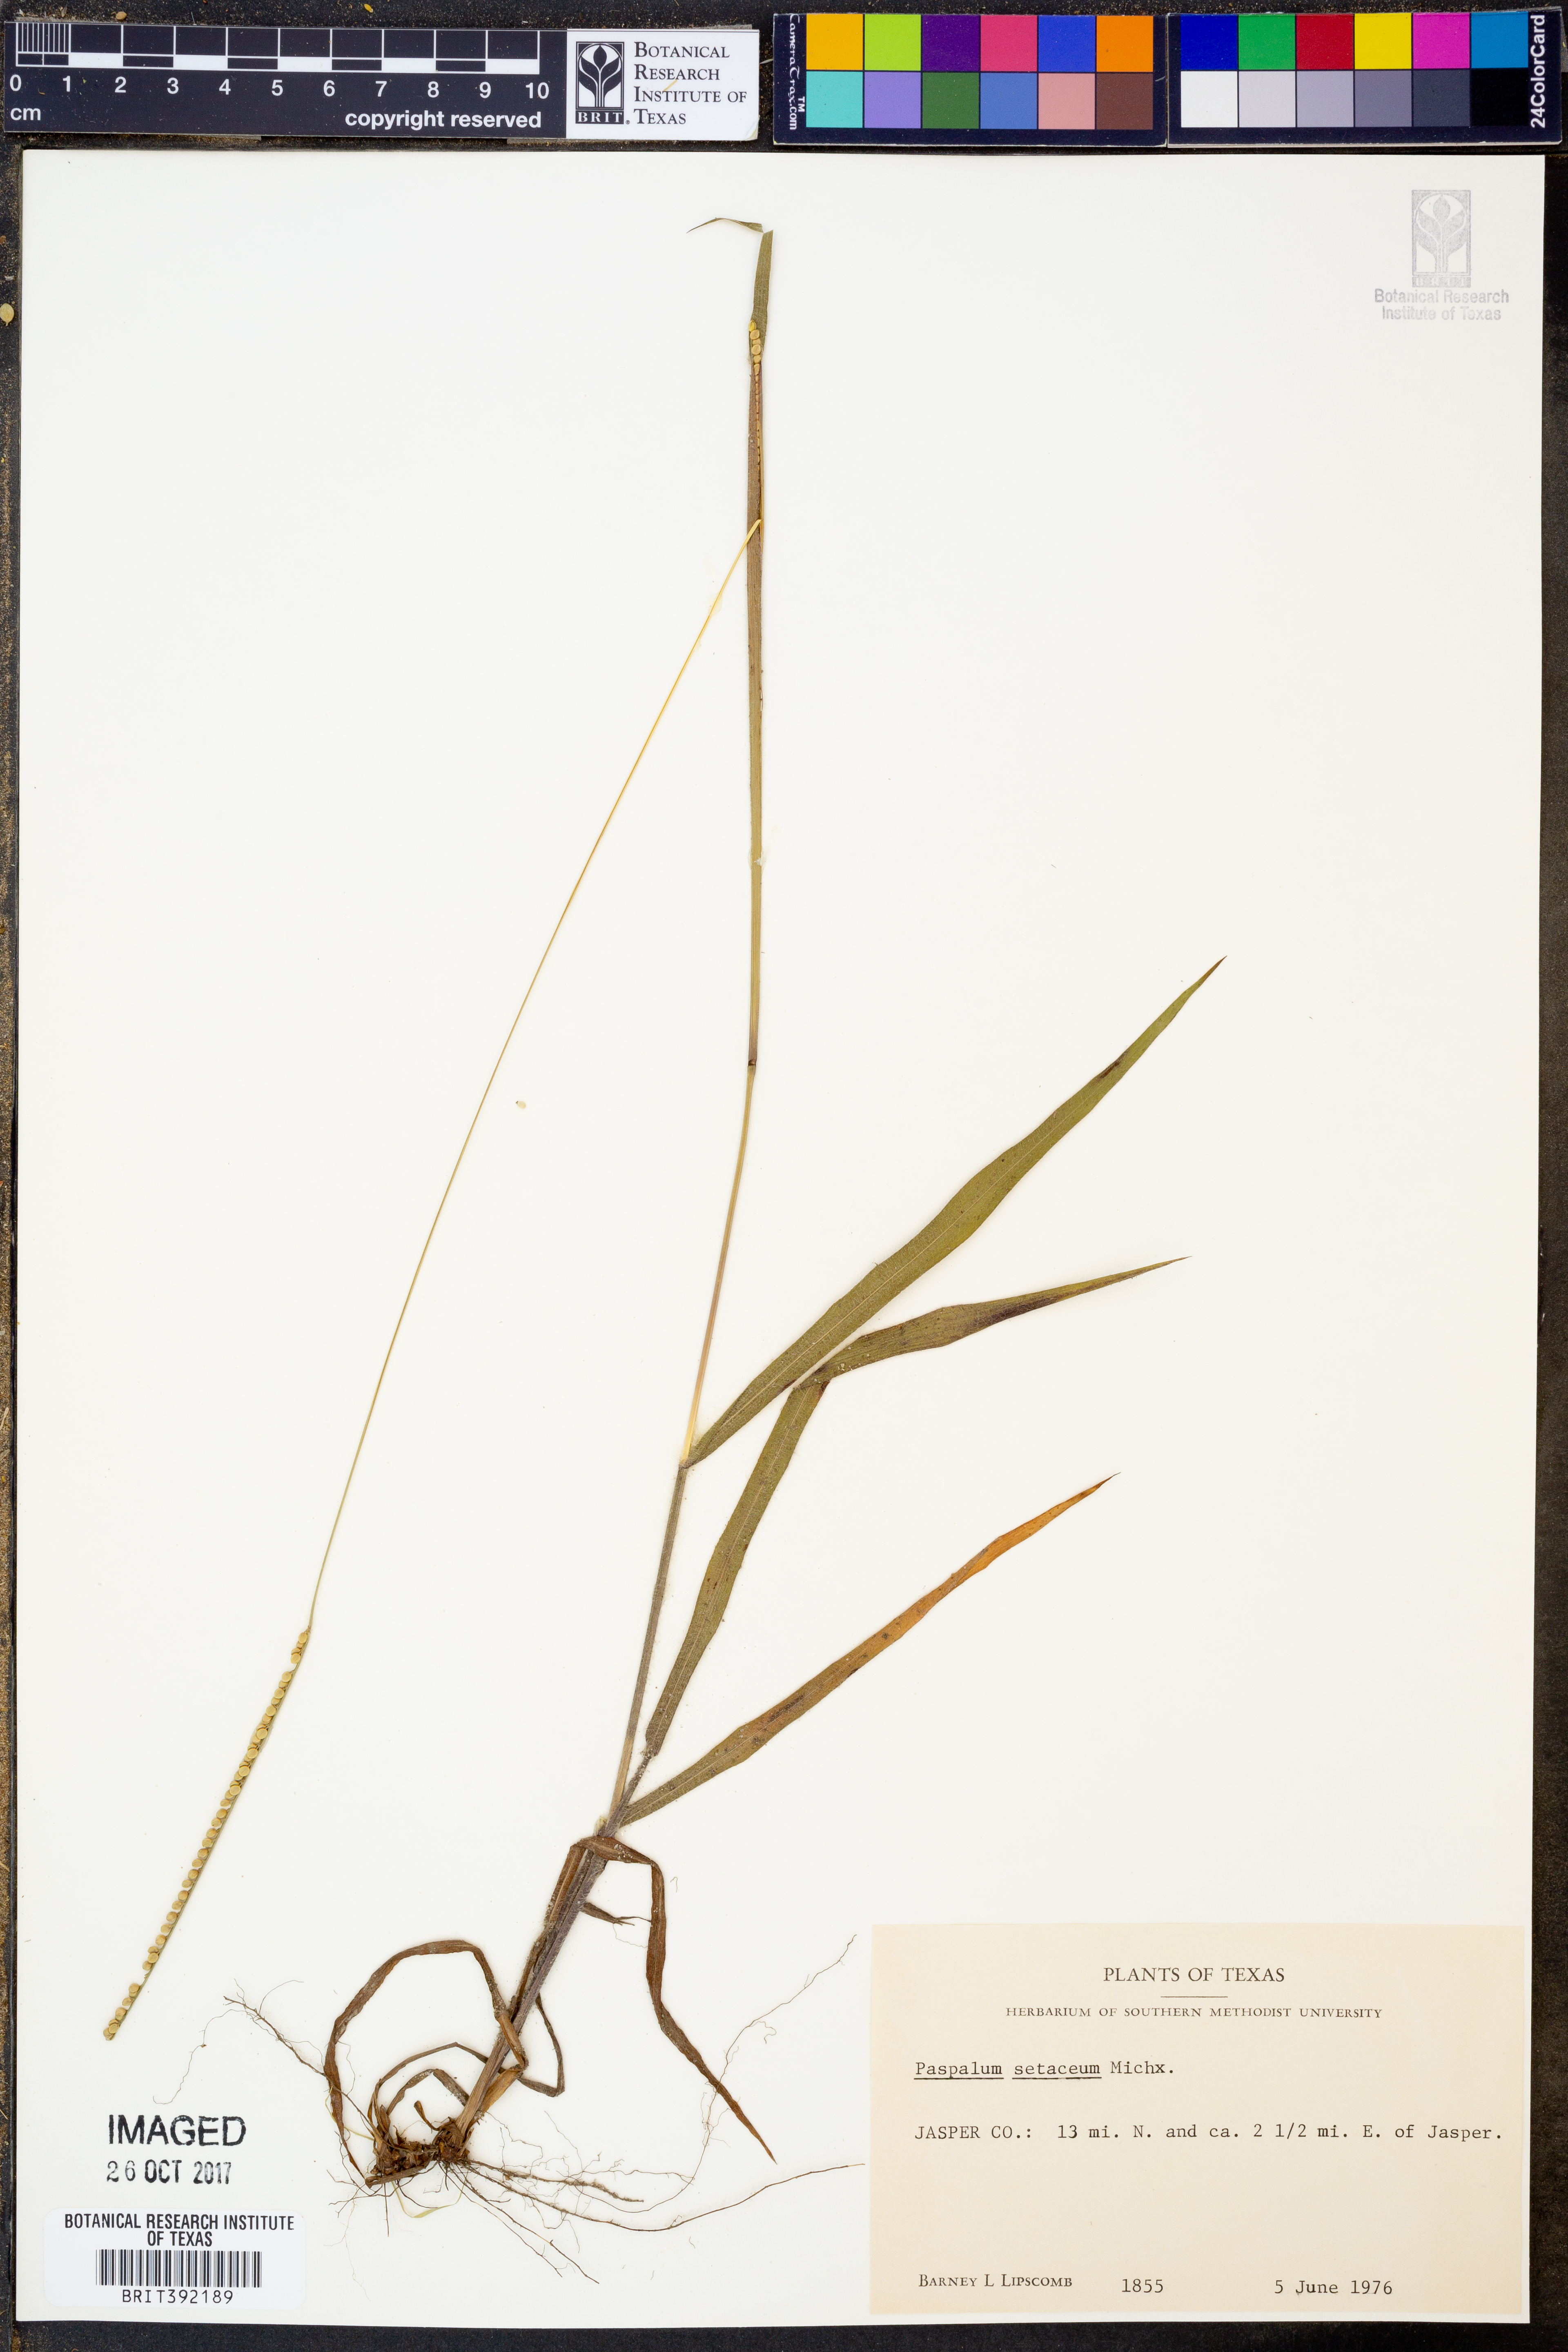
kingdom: Plantae
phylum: Tracheophyta
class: Liliopsida
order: Poales
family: Poaceae
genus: Paspalum
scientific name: Paspalum setaceum
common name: Slender paspalum
